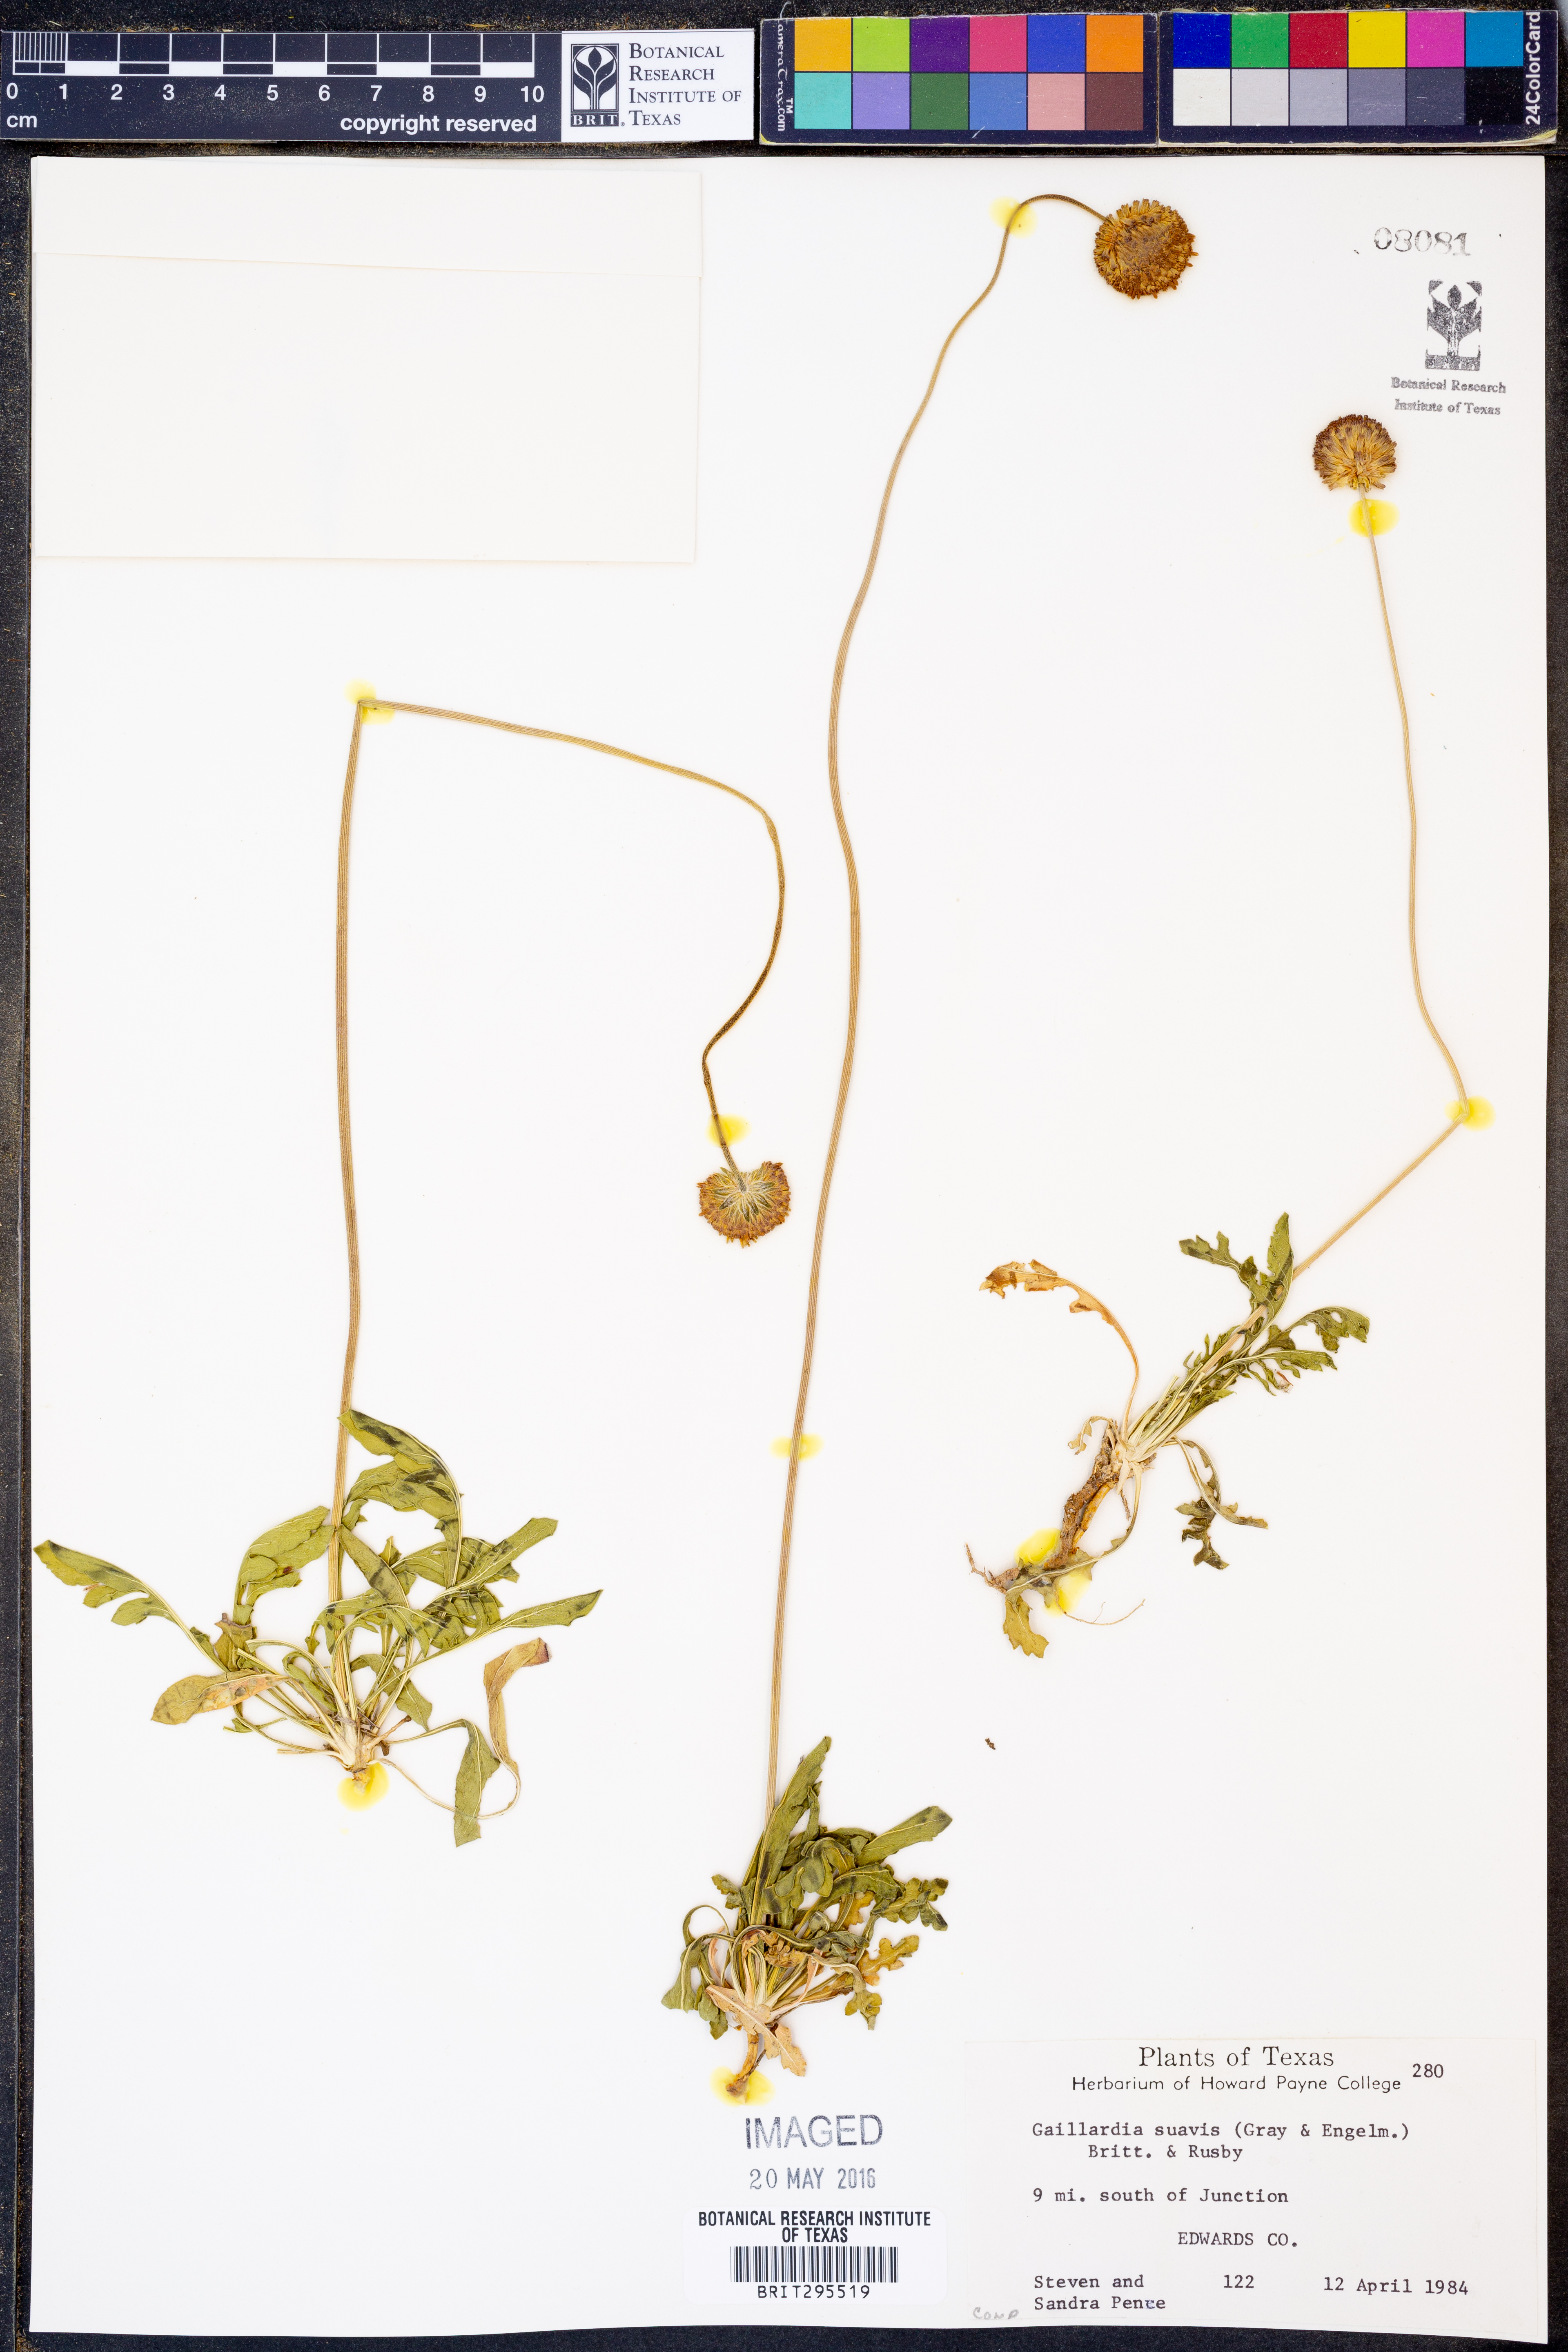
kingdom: Plantae
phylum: Tracheophyta
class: Magnoliopsida
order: Asterales
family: Asteraceae
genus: Gaillardia
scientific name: Gaillardia suavis
